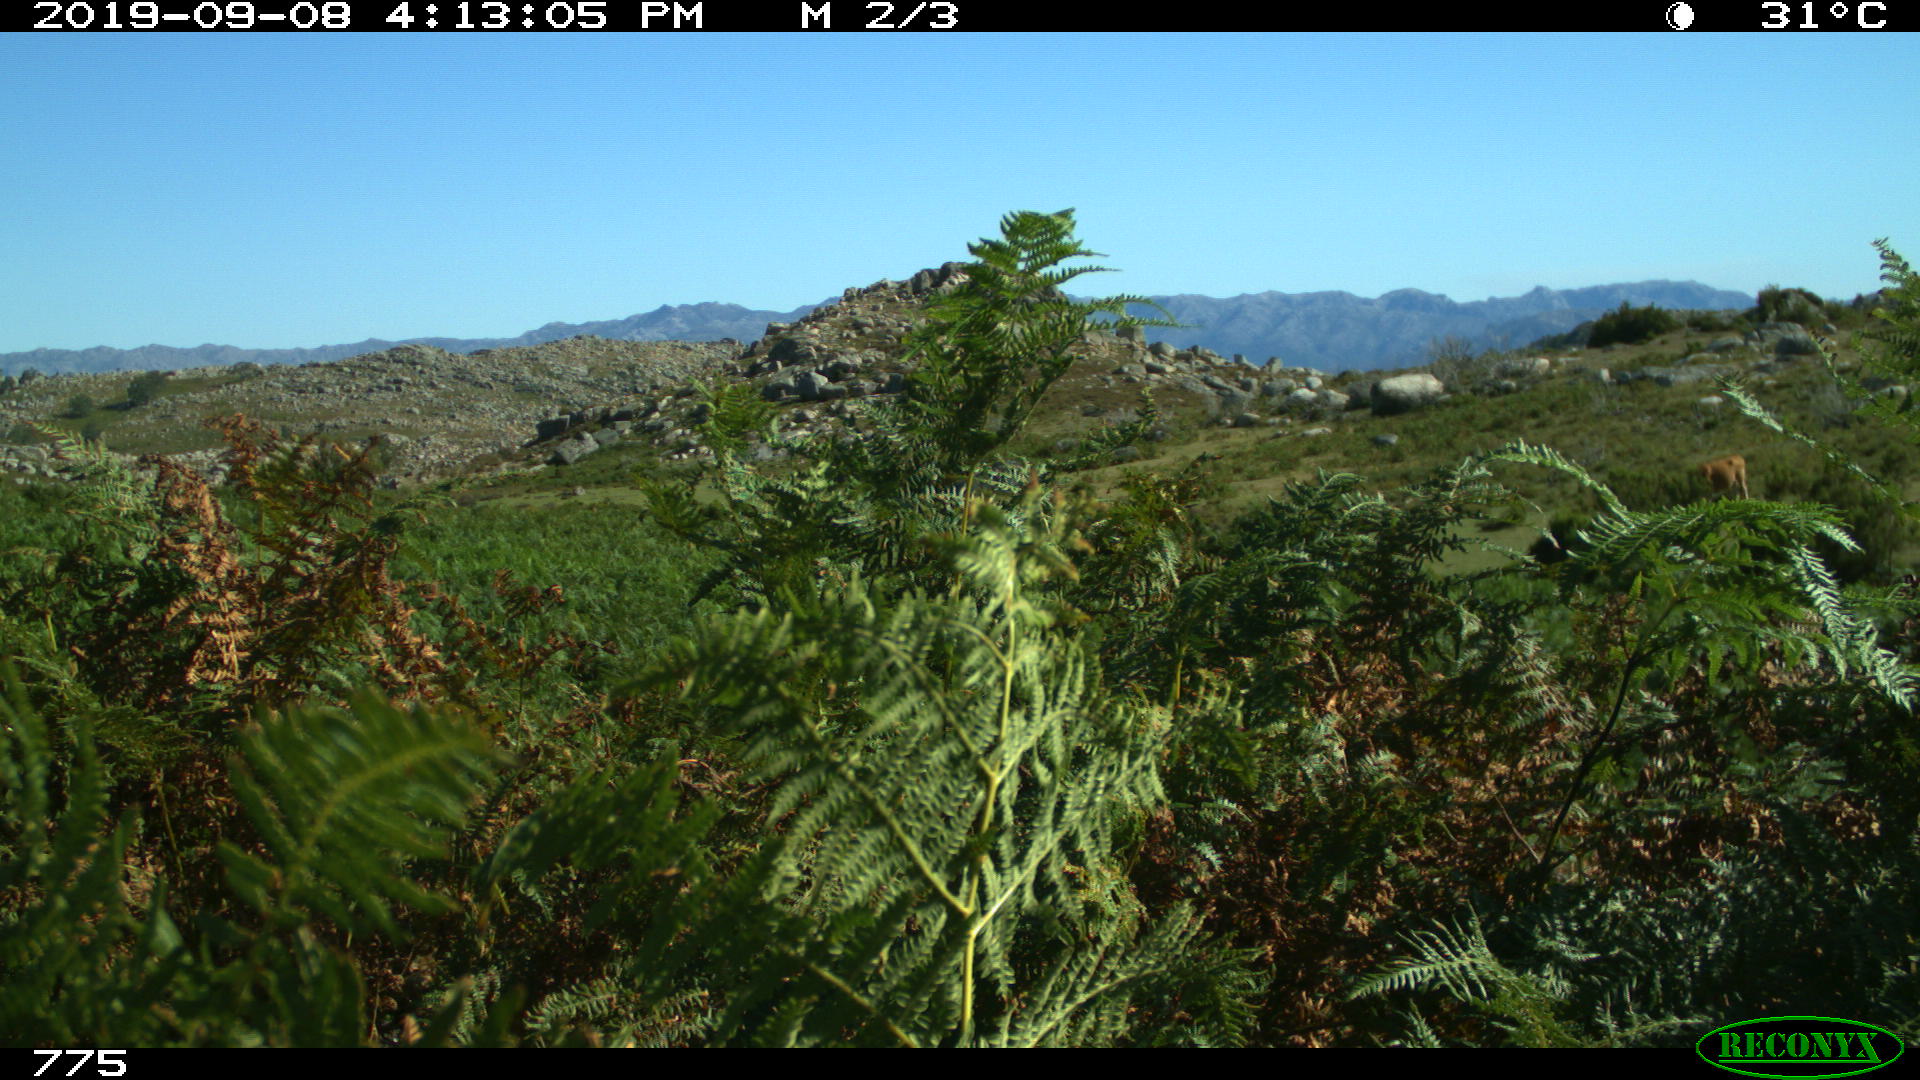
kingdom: Animalia
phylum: Chordata
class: Mammalia
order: Artiodactyla
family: Bovidae
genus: Bos
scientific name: Bos taurus
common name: Domesticated cattle
